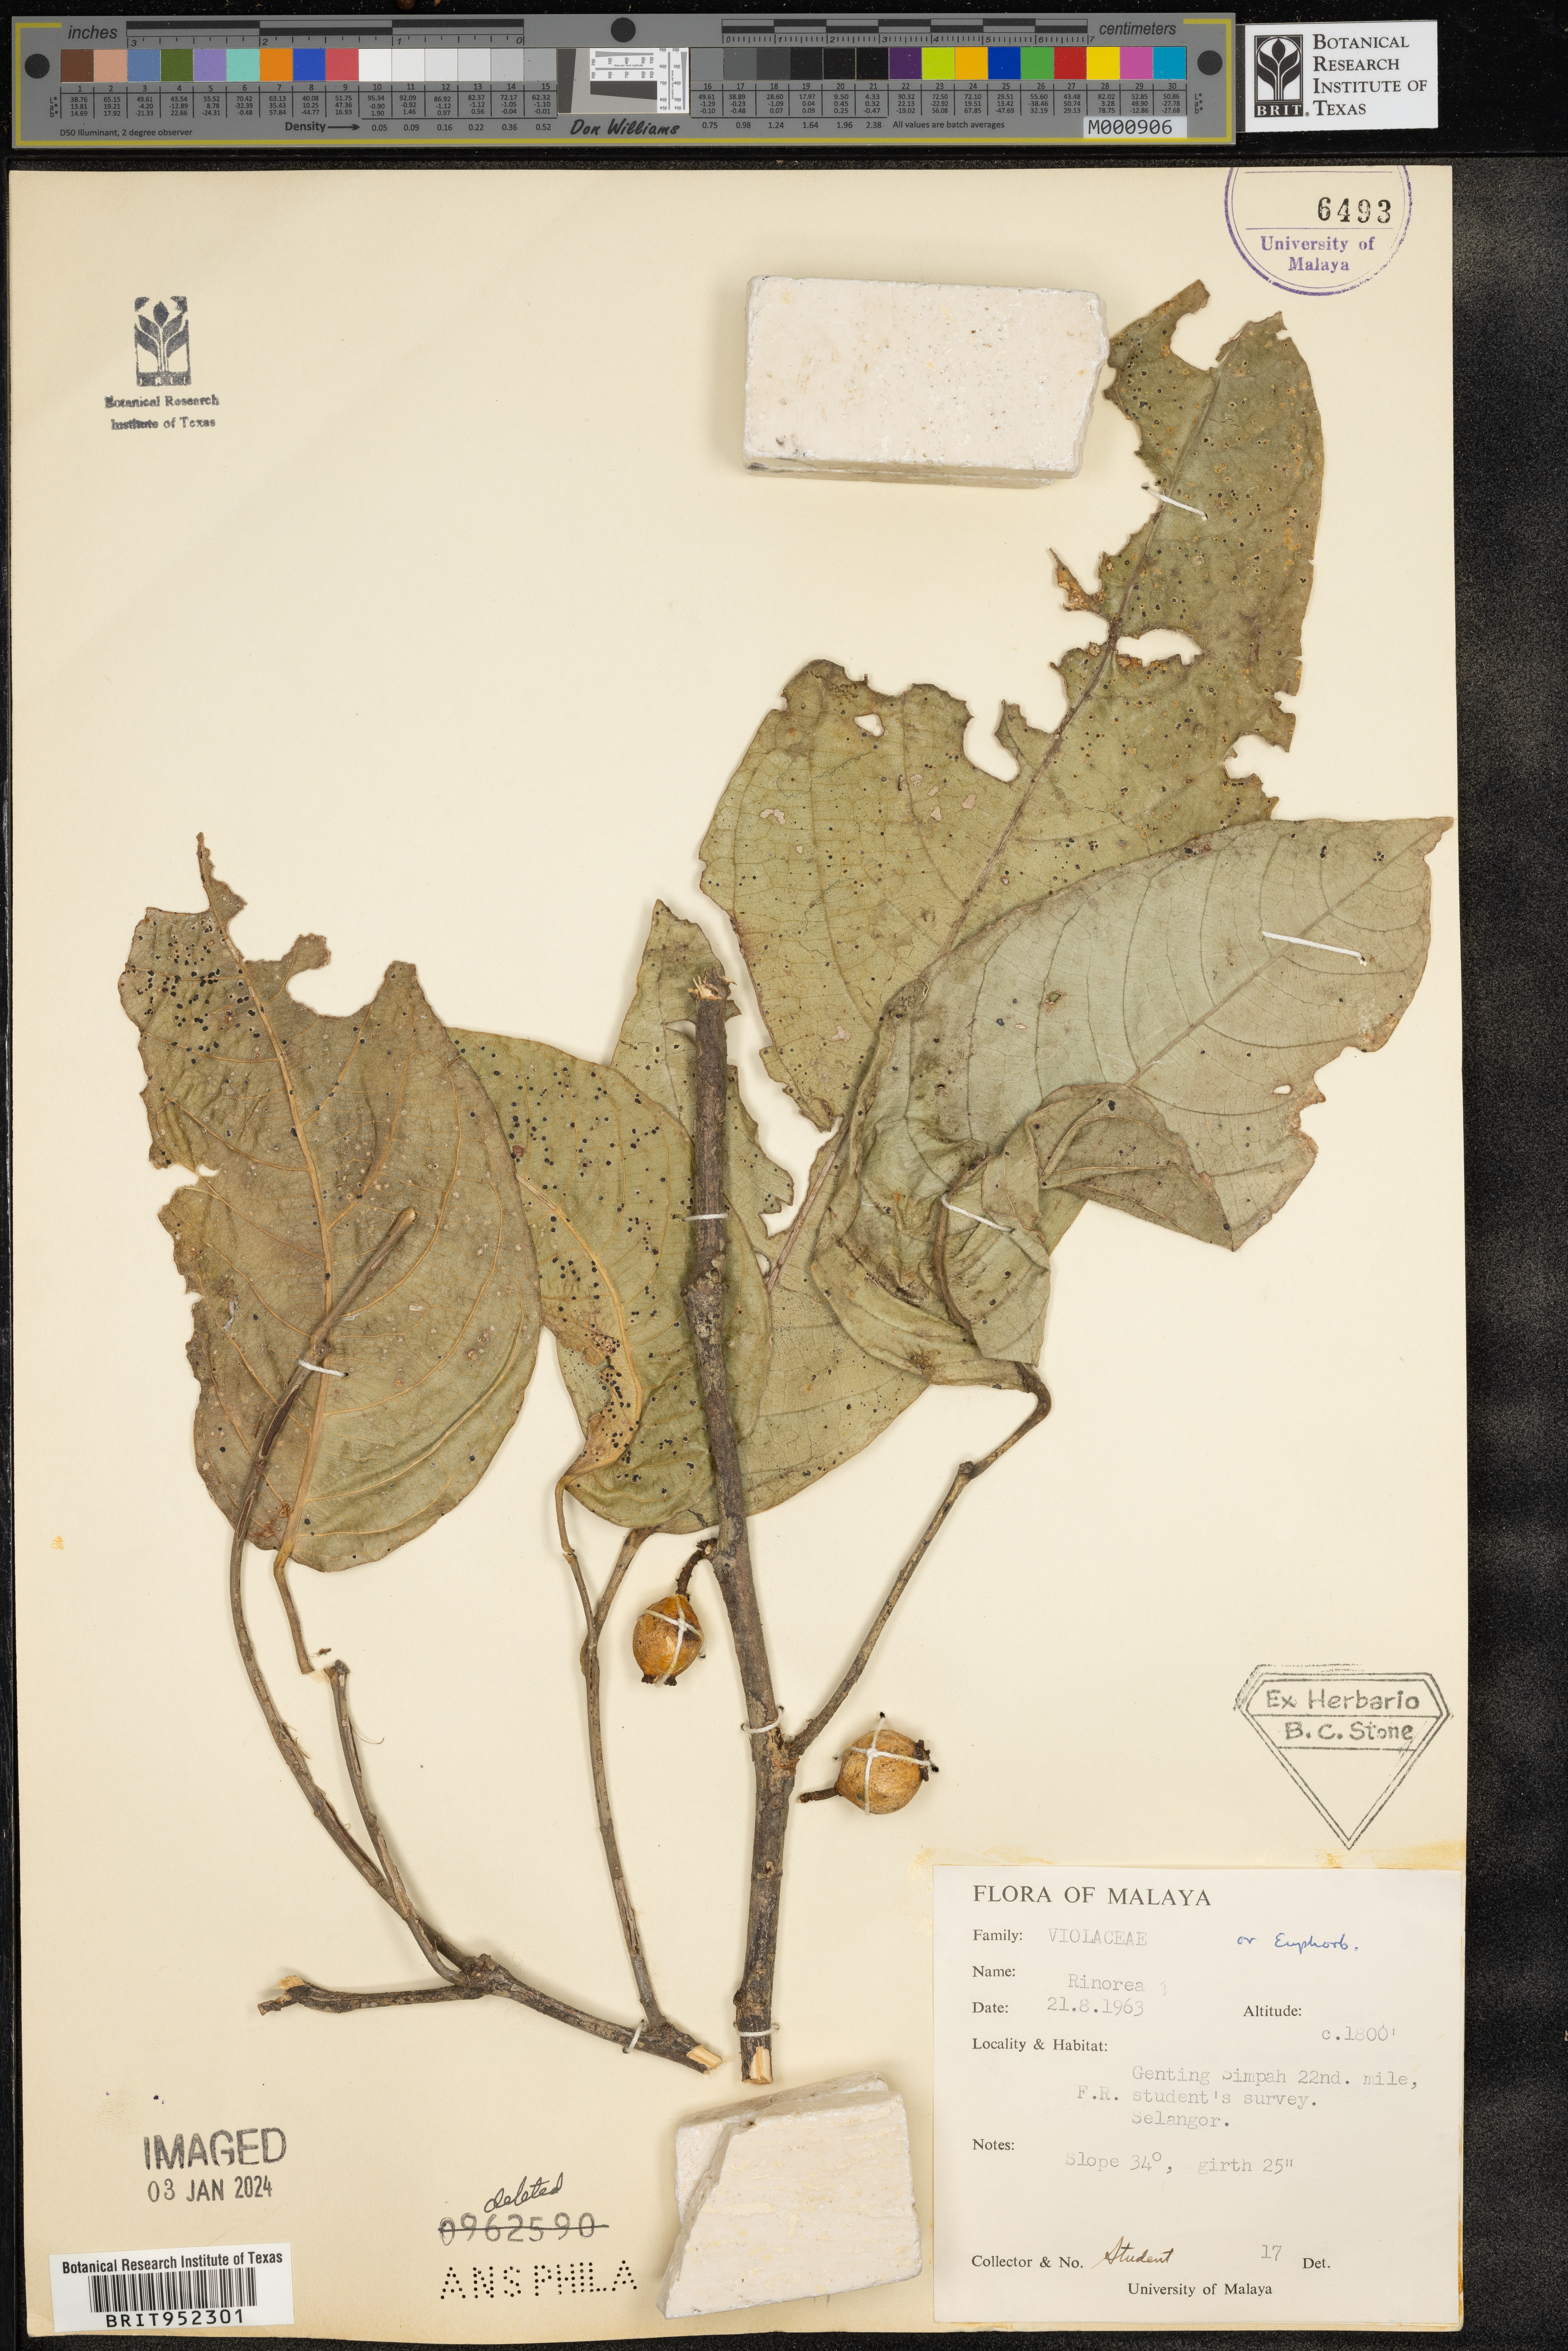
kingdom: Plantae
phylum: Tracheophyta
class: Magnoliopsida
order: Malpighiales
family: Violaceae
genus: Rinorea
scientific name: Rinorea
